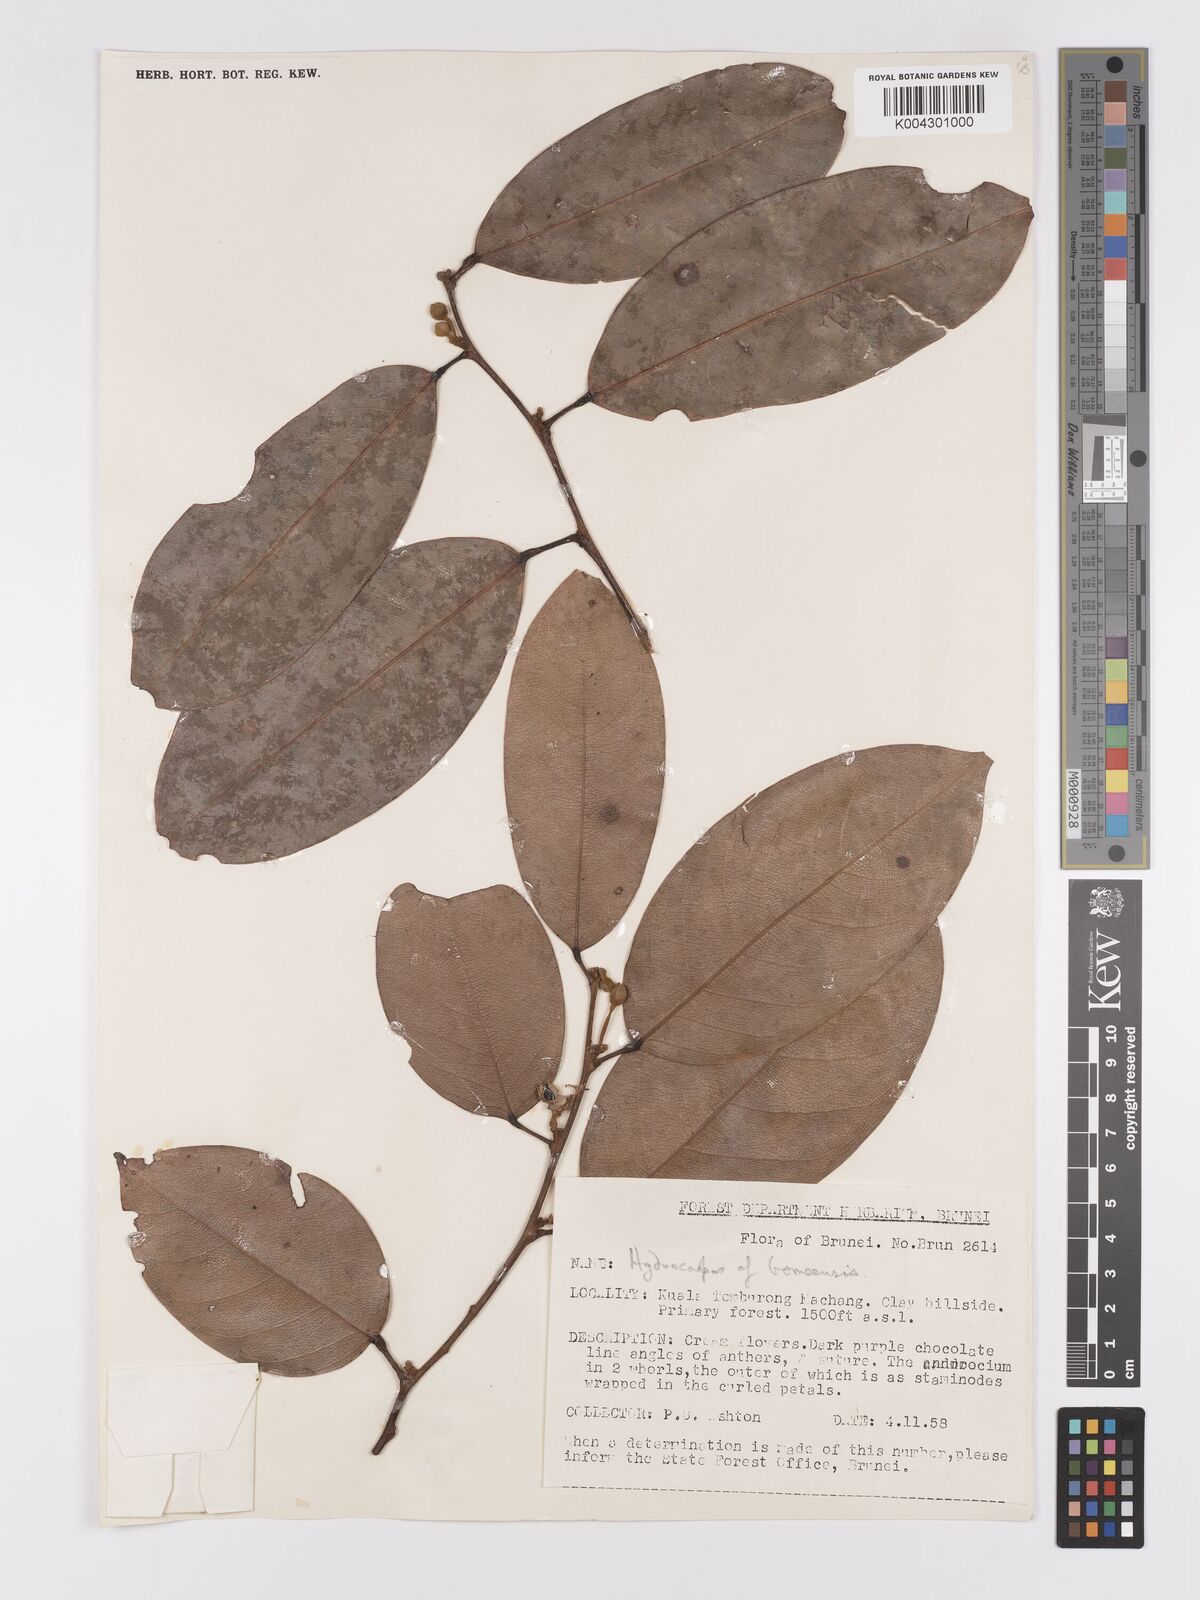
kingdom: Plantae
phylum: Tracheophyta
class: Magnoliopsida
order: Malpighiales
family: Achariaceae
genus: Hydnocarpus
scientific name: Hydnocarpus borneensis
